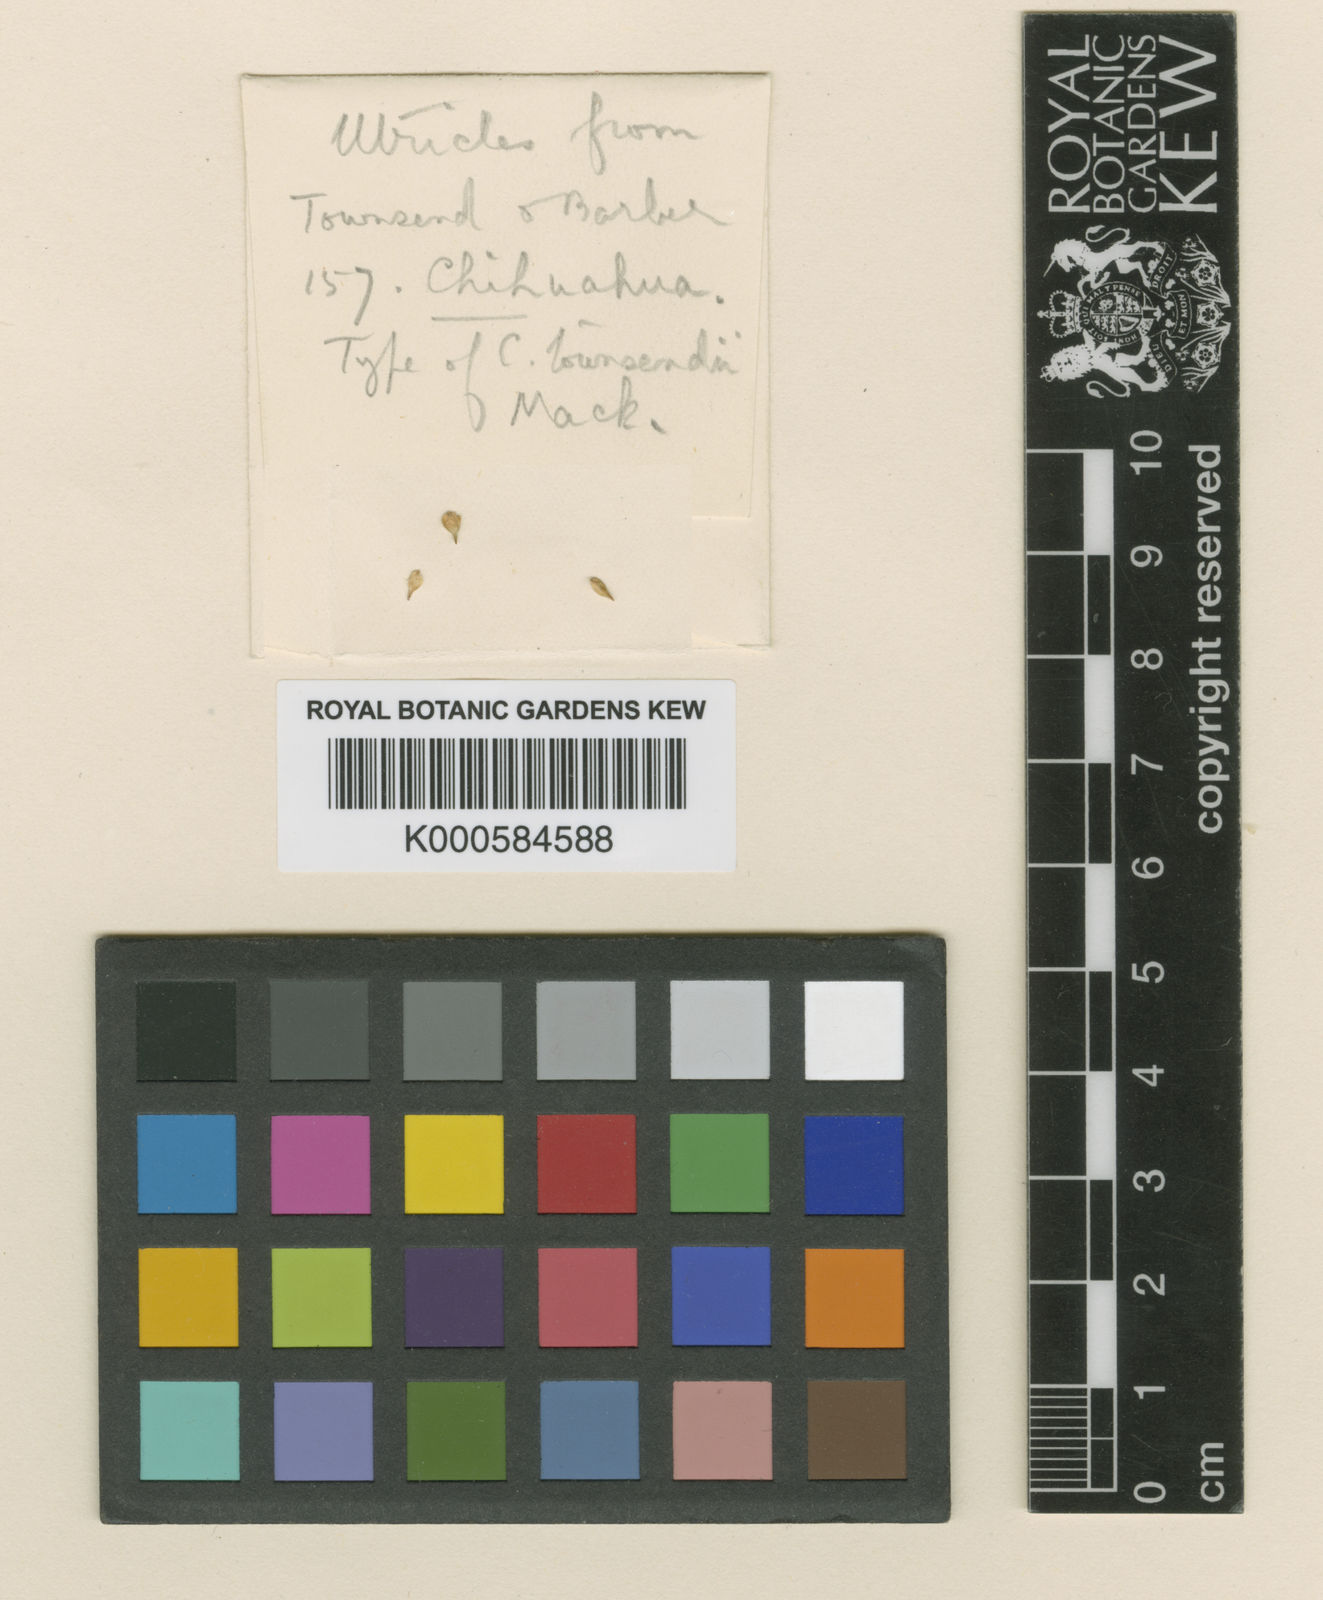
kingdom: Plantae
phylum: Tracheophyta
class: Liliopsida
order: Poales
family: Cyperaceae
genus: Carex
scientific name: Carex townsendii
